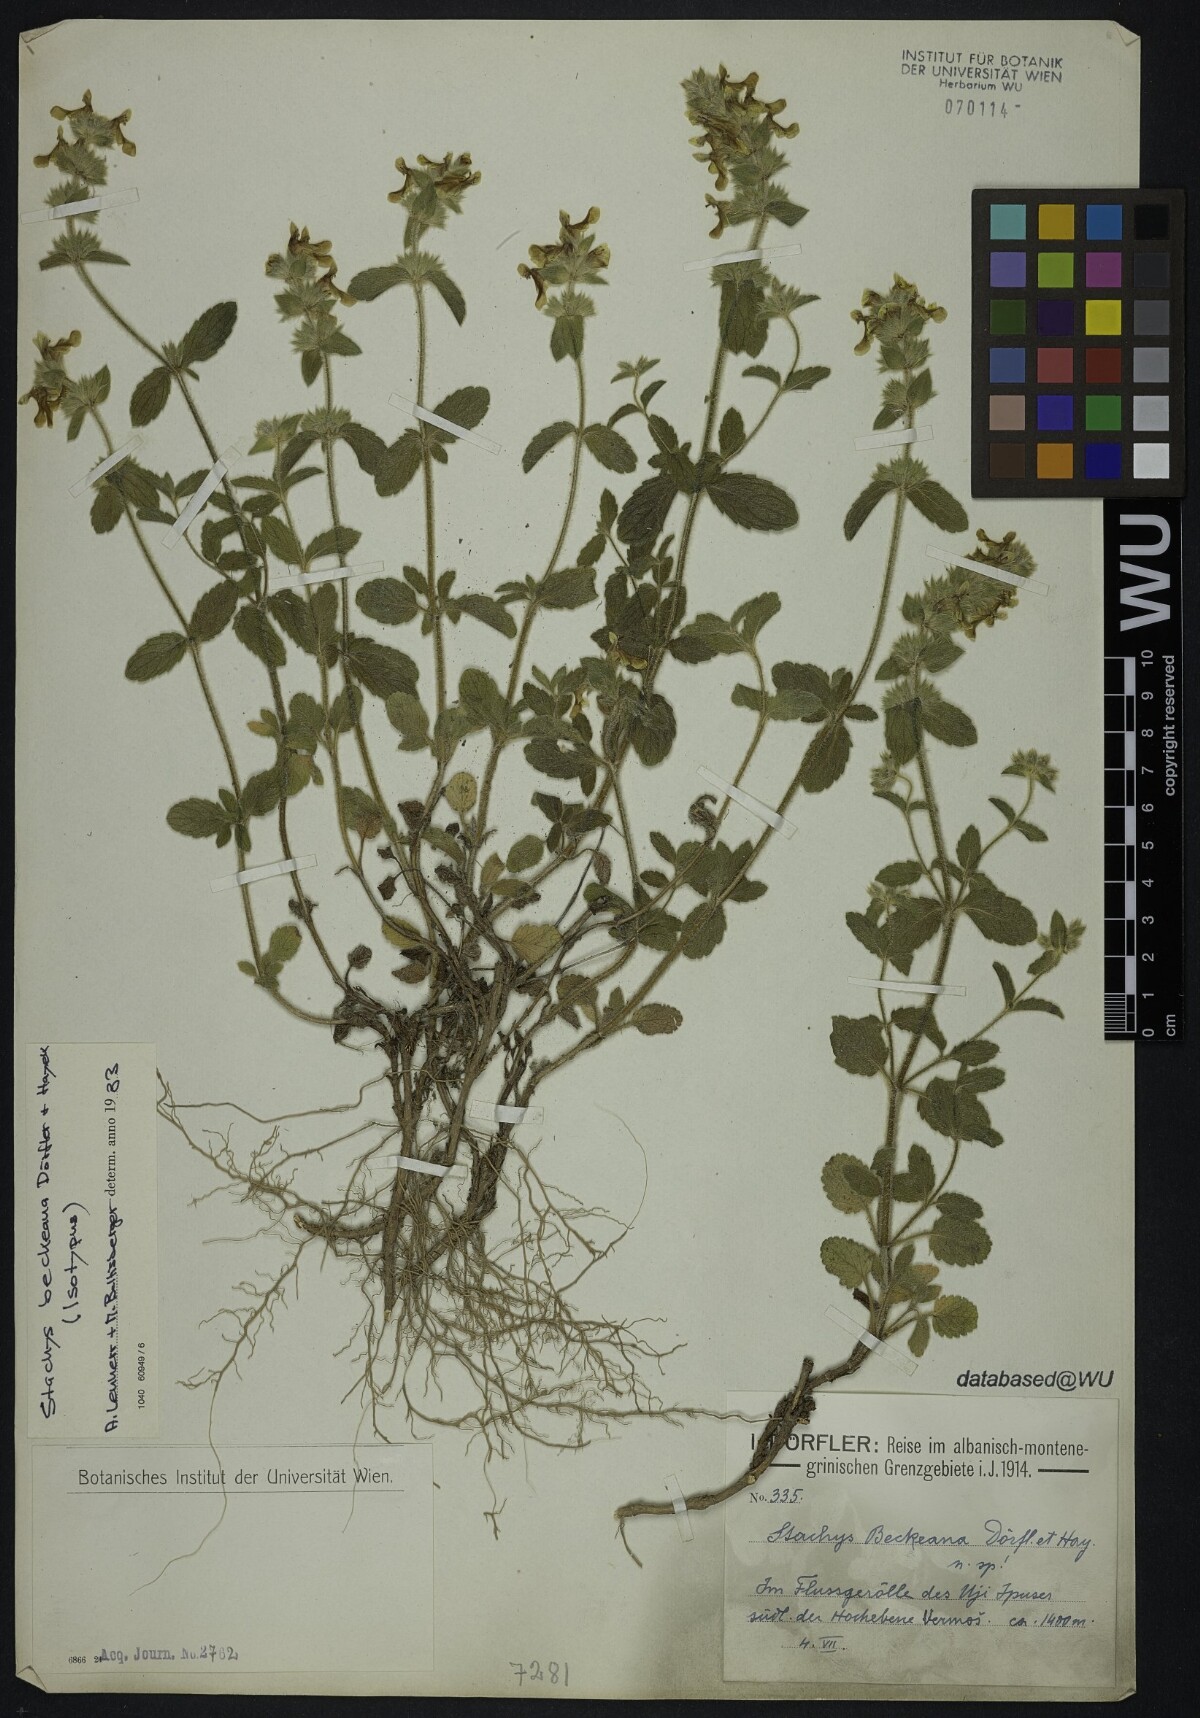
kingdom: Plantae
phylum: Tracheophyta
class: Magnoliopsida
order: Lamiales
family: Lamiaceae
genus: Stachys
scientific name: Stachys beckeana
